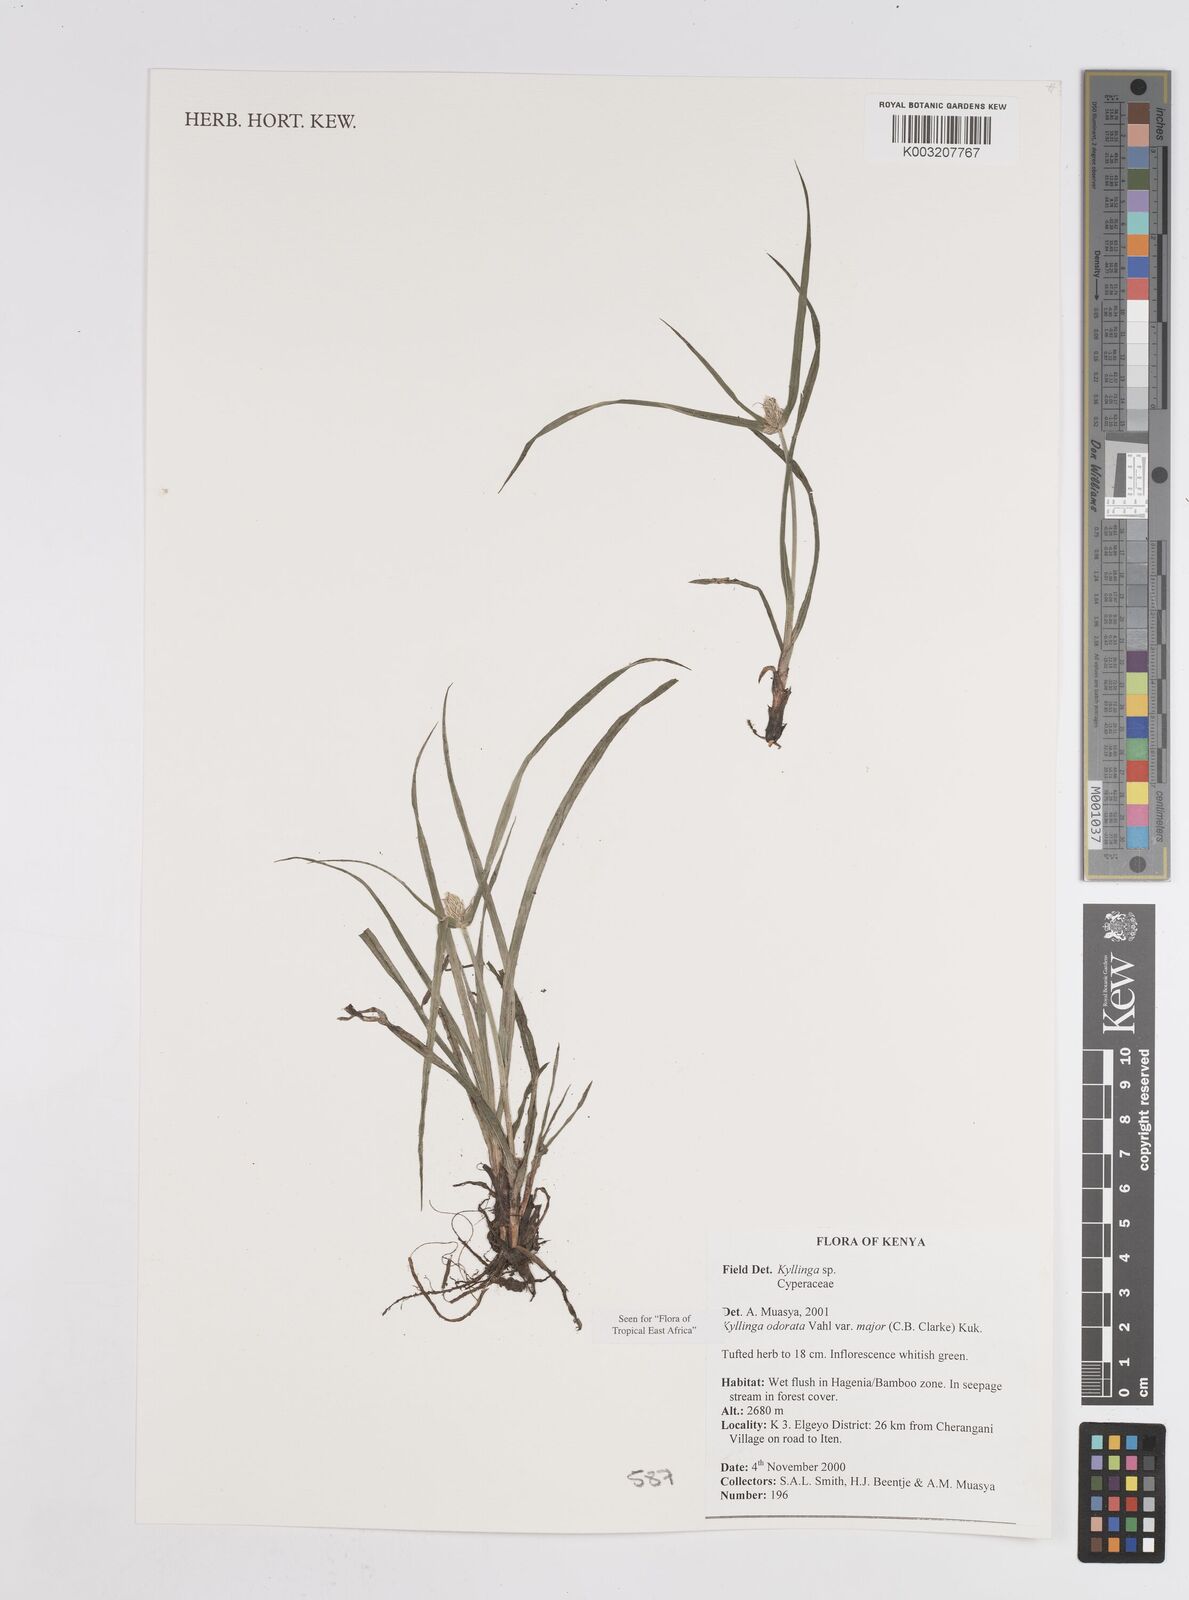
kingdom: Plantae
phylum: Tracheophyta
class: Liliopsida
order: Poales
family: Cyperaceae
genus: Cyperus
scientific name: Cyperus
